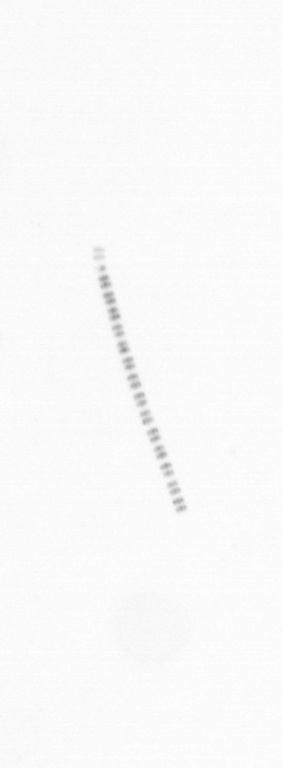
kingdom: Chromista
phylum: Ochrophyta
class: Bacillariophyceae
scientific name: Bacillariophyceae
